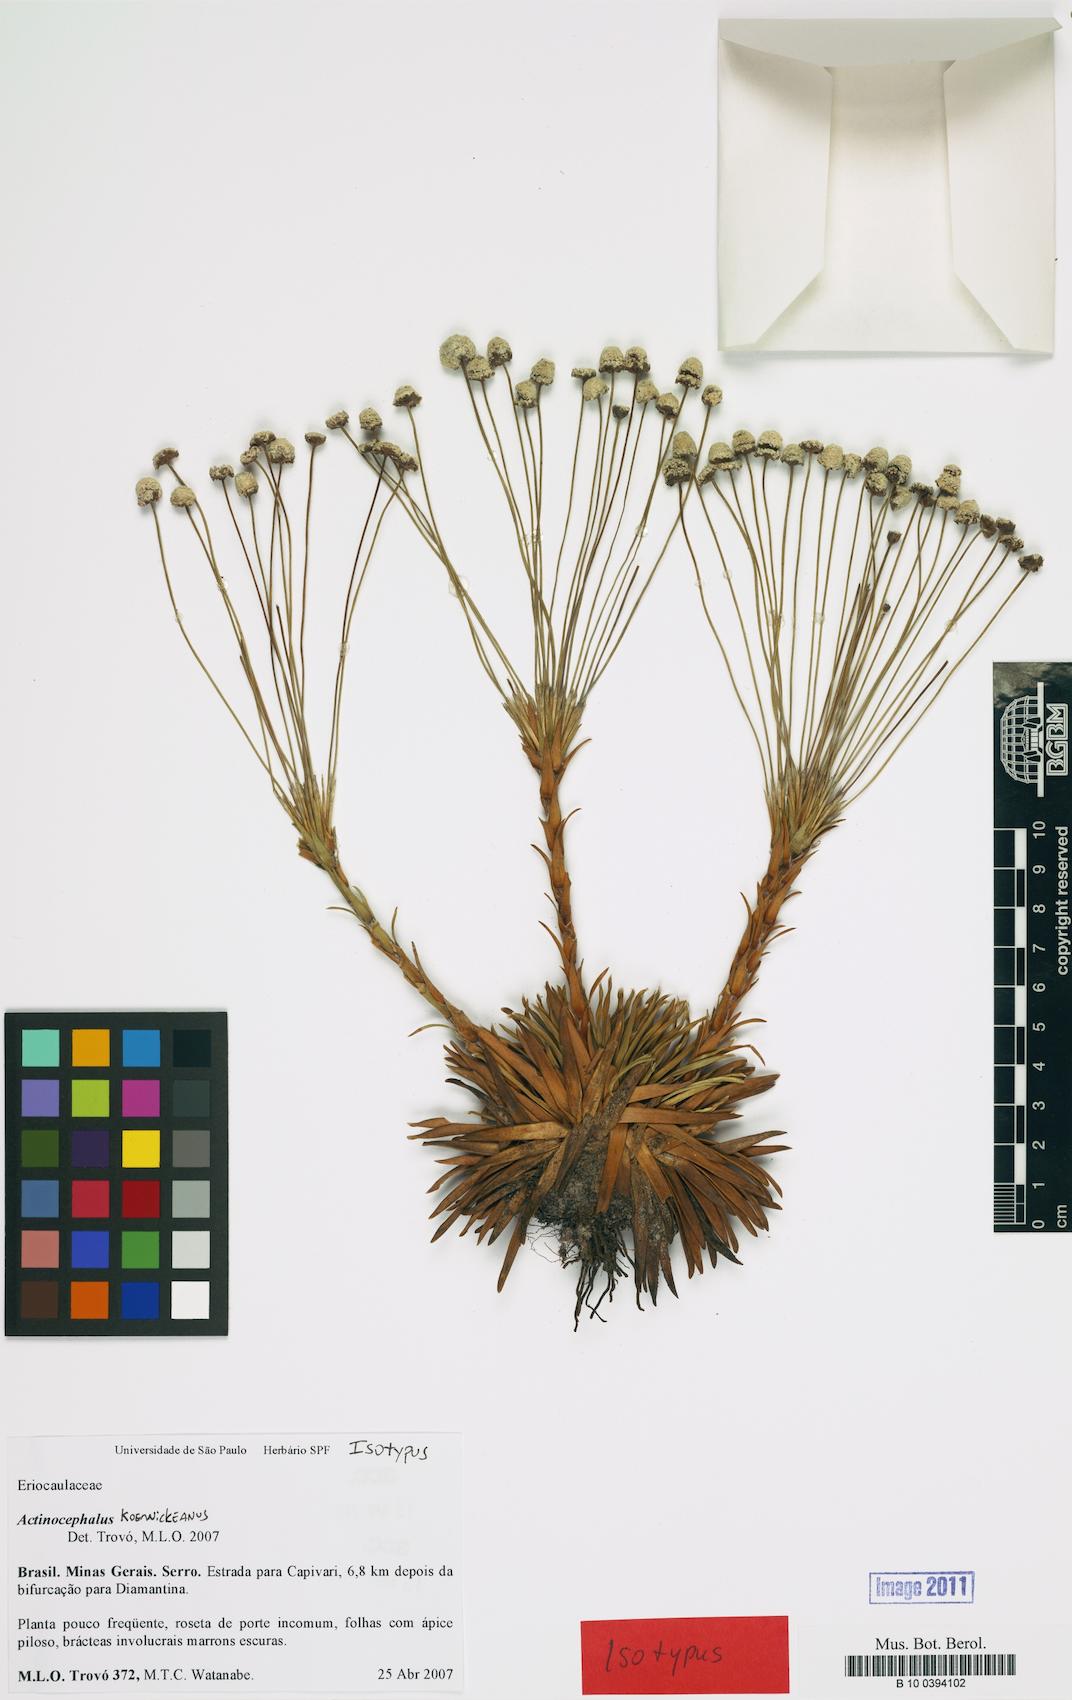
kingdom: Plantae
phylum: Tracheophyta
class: Liliopsida
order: Poales
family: Eriocaulaceae
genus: Paepalanthus
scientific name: Paepalanthus koernickeanus
